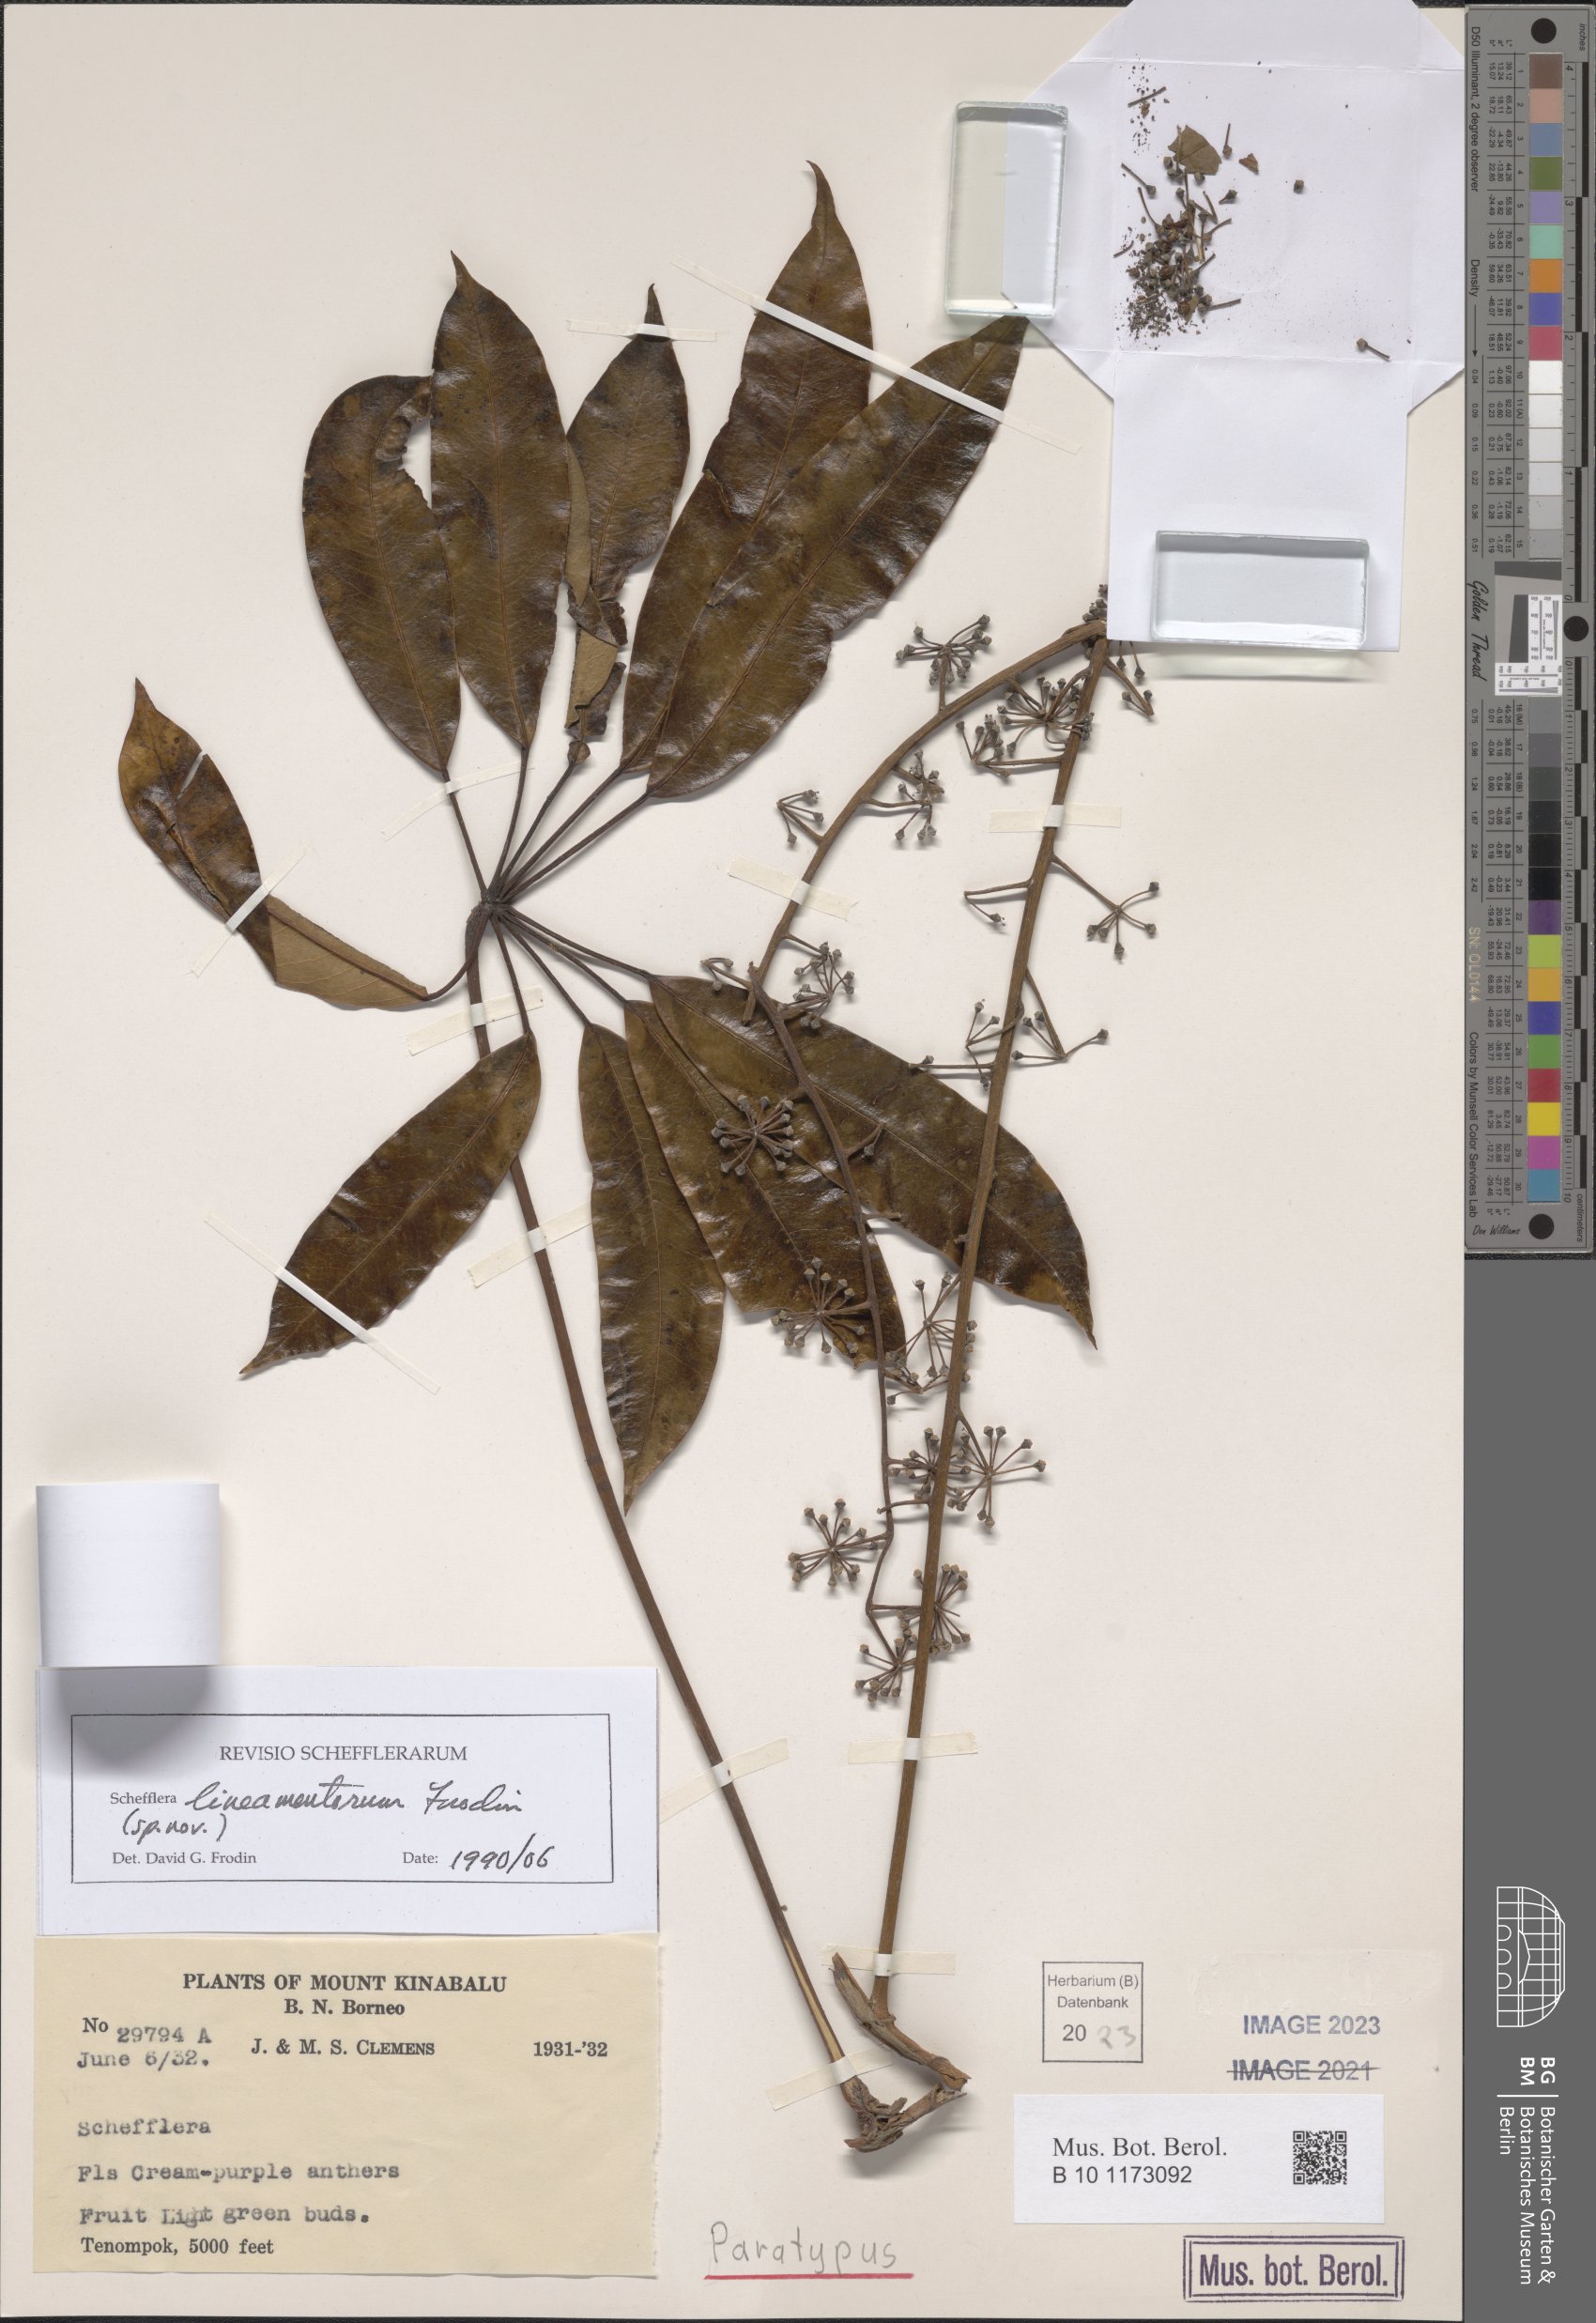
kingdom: Plantae
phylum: Tracheophyta
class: Magnoliopsida
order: Apiales
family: Araliaceae
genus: Heptapleurum
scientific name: Heptapleurum lineamentorum
